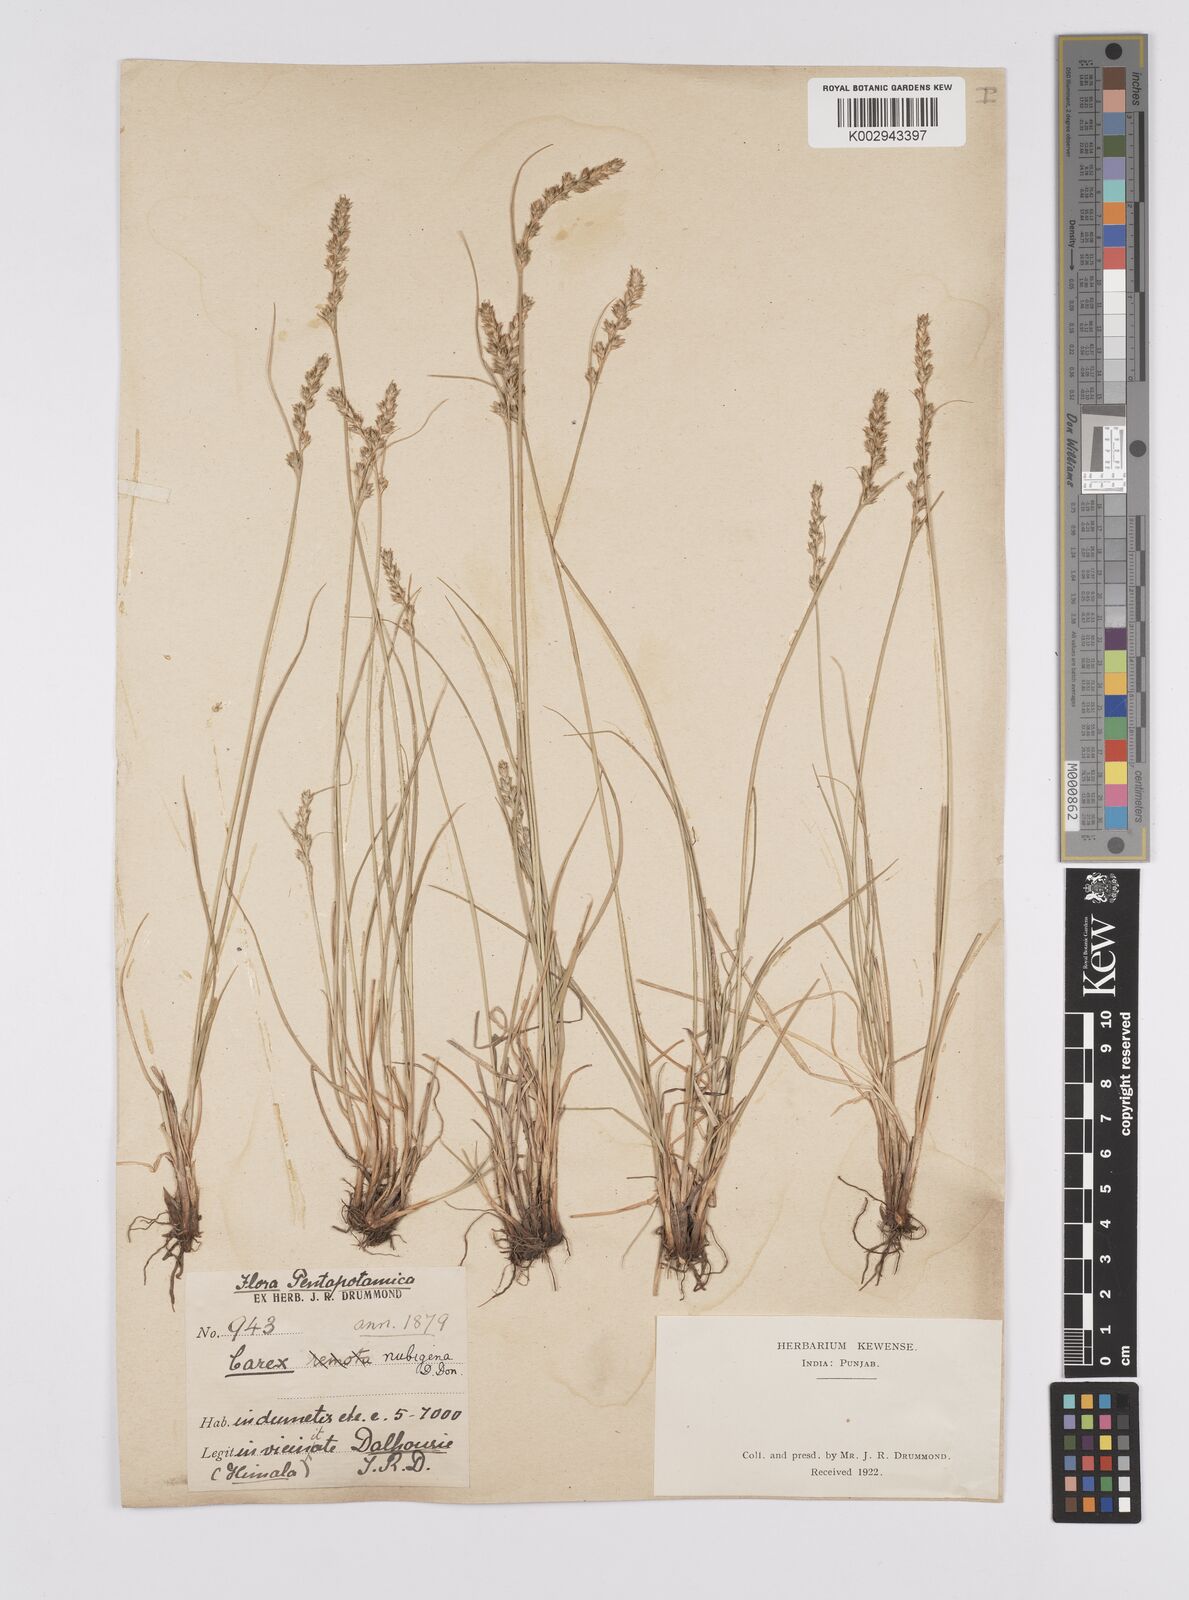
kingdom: Plantae
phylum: Tracheophyta
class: Liliopsida
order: Poales
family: Cyperaceae
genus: Carex
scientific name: Carex nubigena
